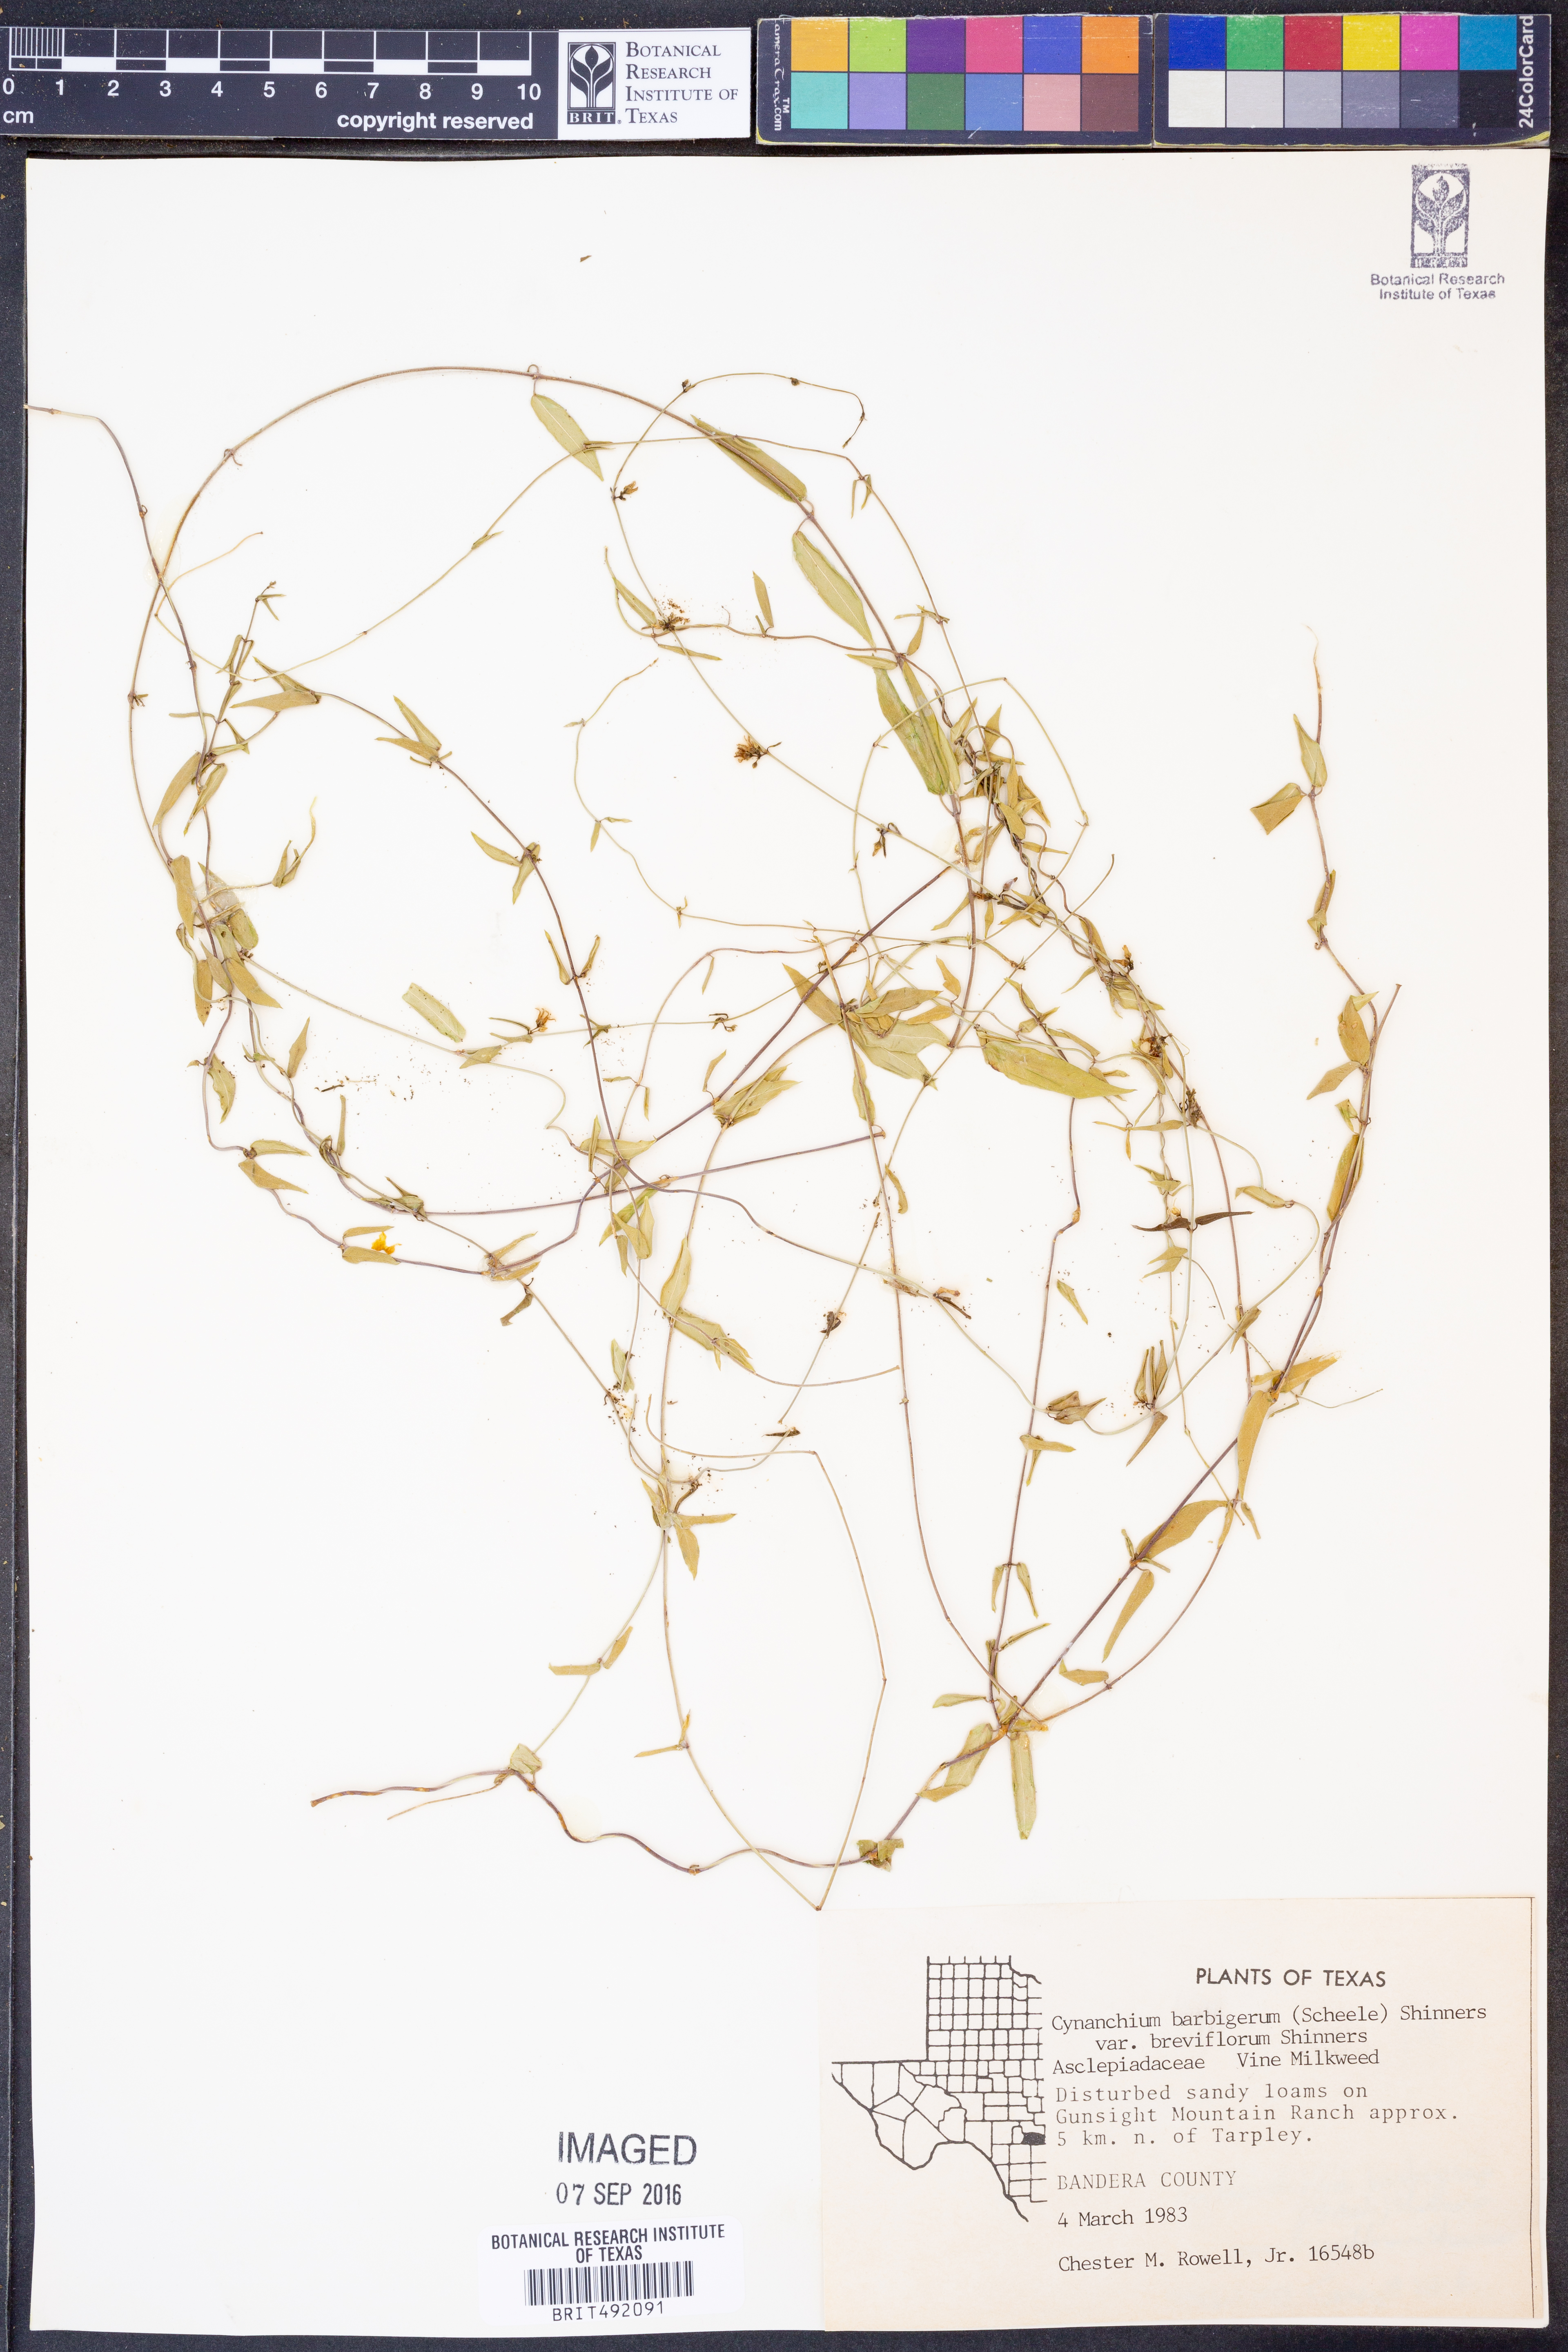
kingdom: Plantae
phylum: Tracheophyta
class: Magnoliopsida
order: Gentianales
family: Apocynaceae
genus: Metastelma
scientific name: Metastelma pringlei
